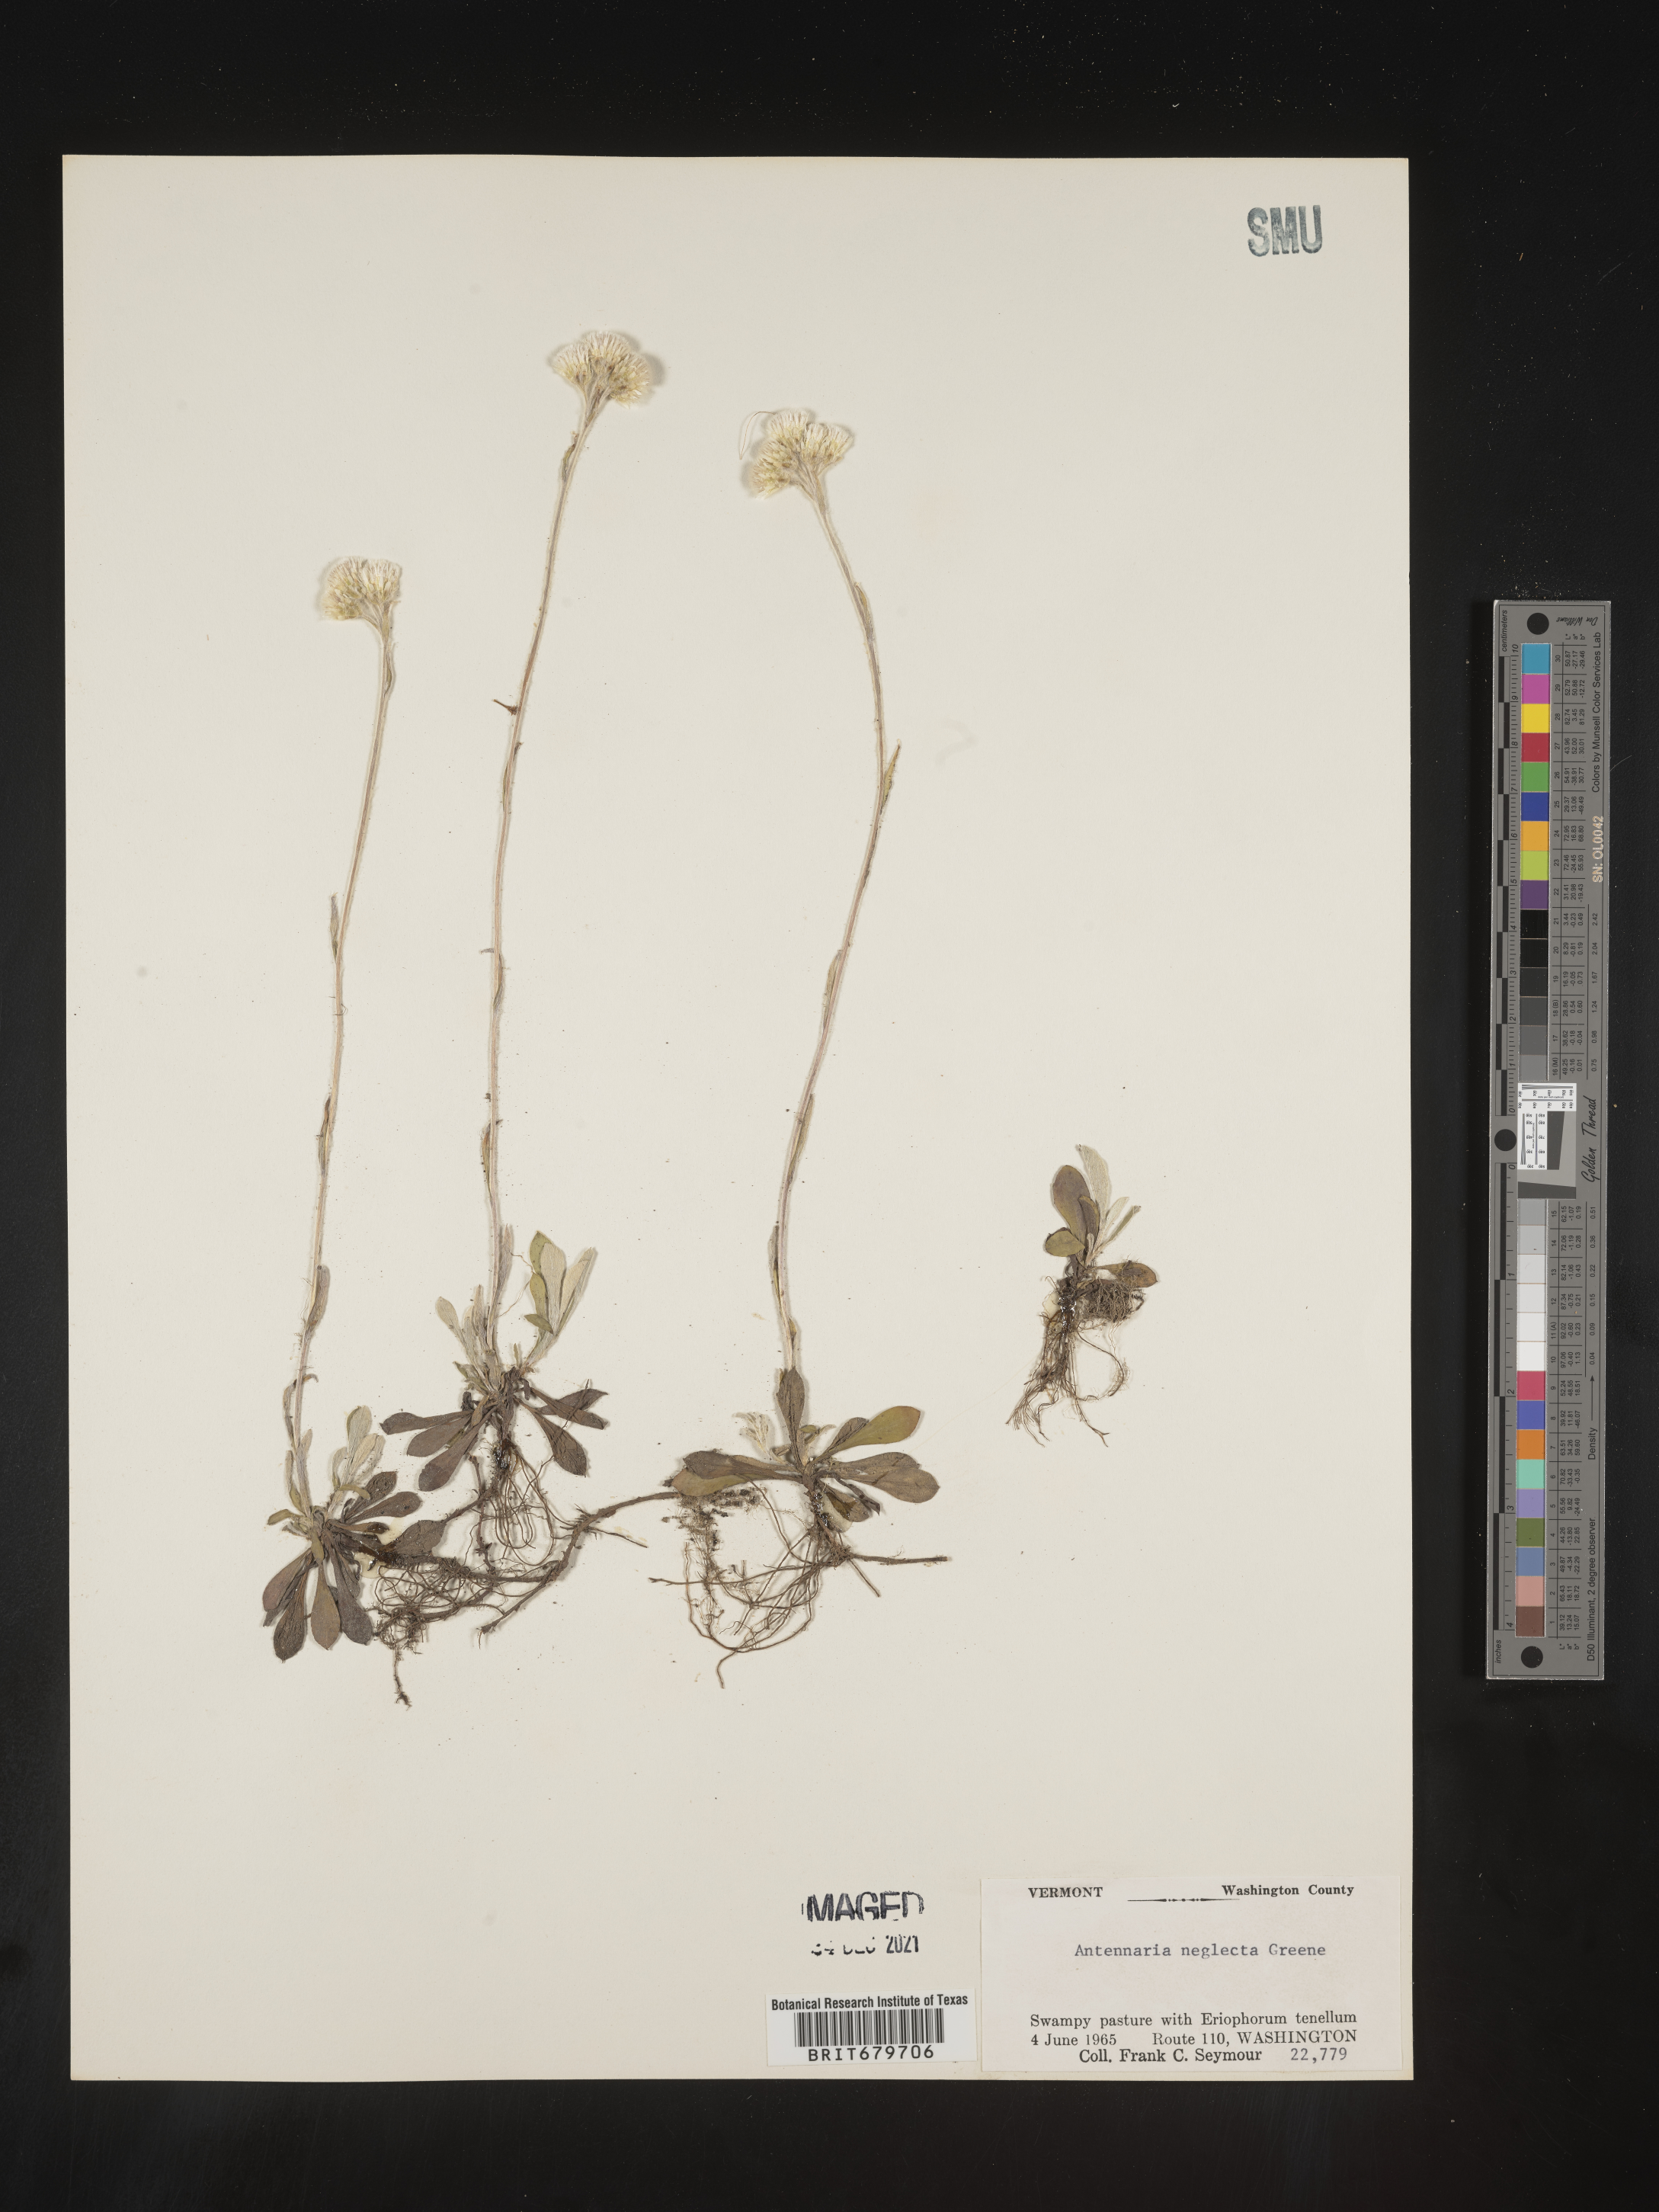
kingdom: Plantae
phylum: Tracheophyta
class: Magnoliopsida
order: Asterales
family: Asteraceae
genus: Antennaria
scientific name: Antennaria neglecta
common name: Field pussytoes
